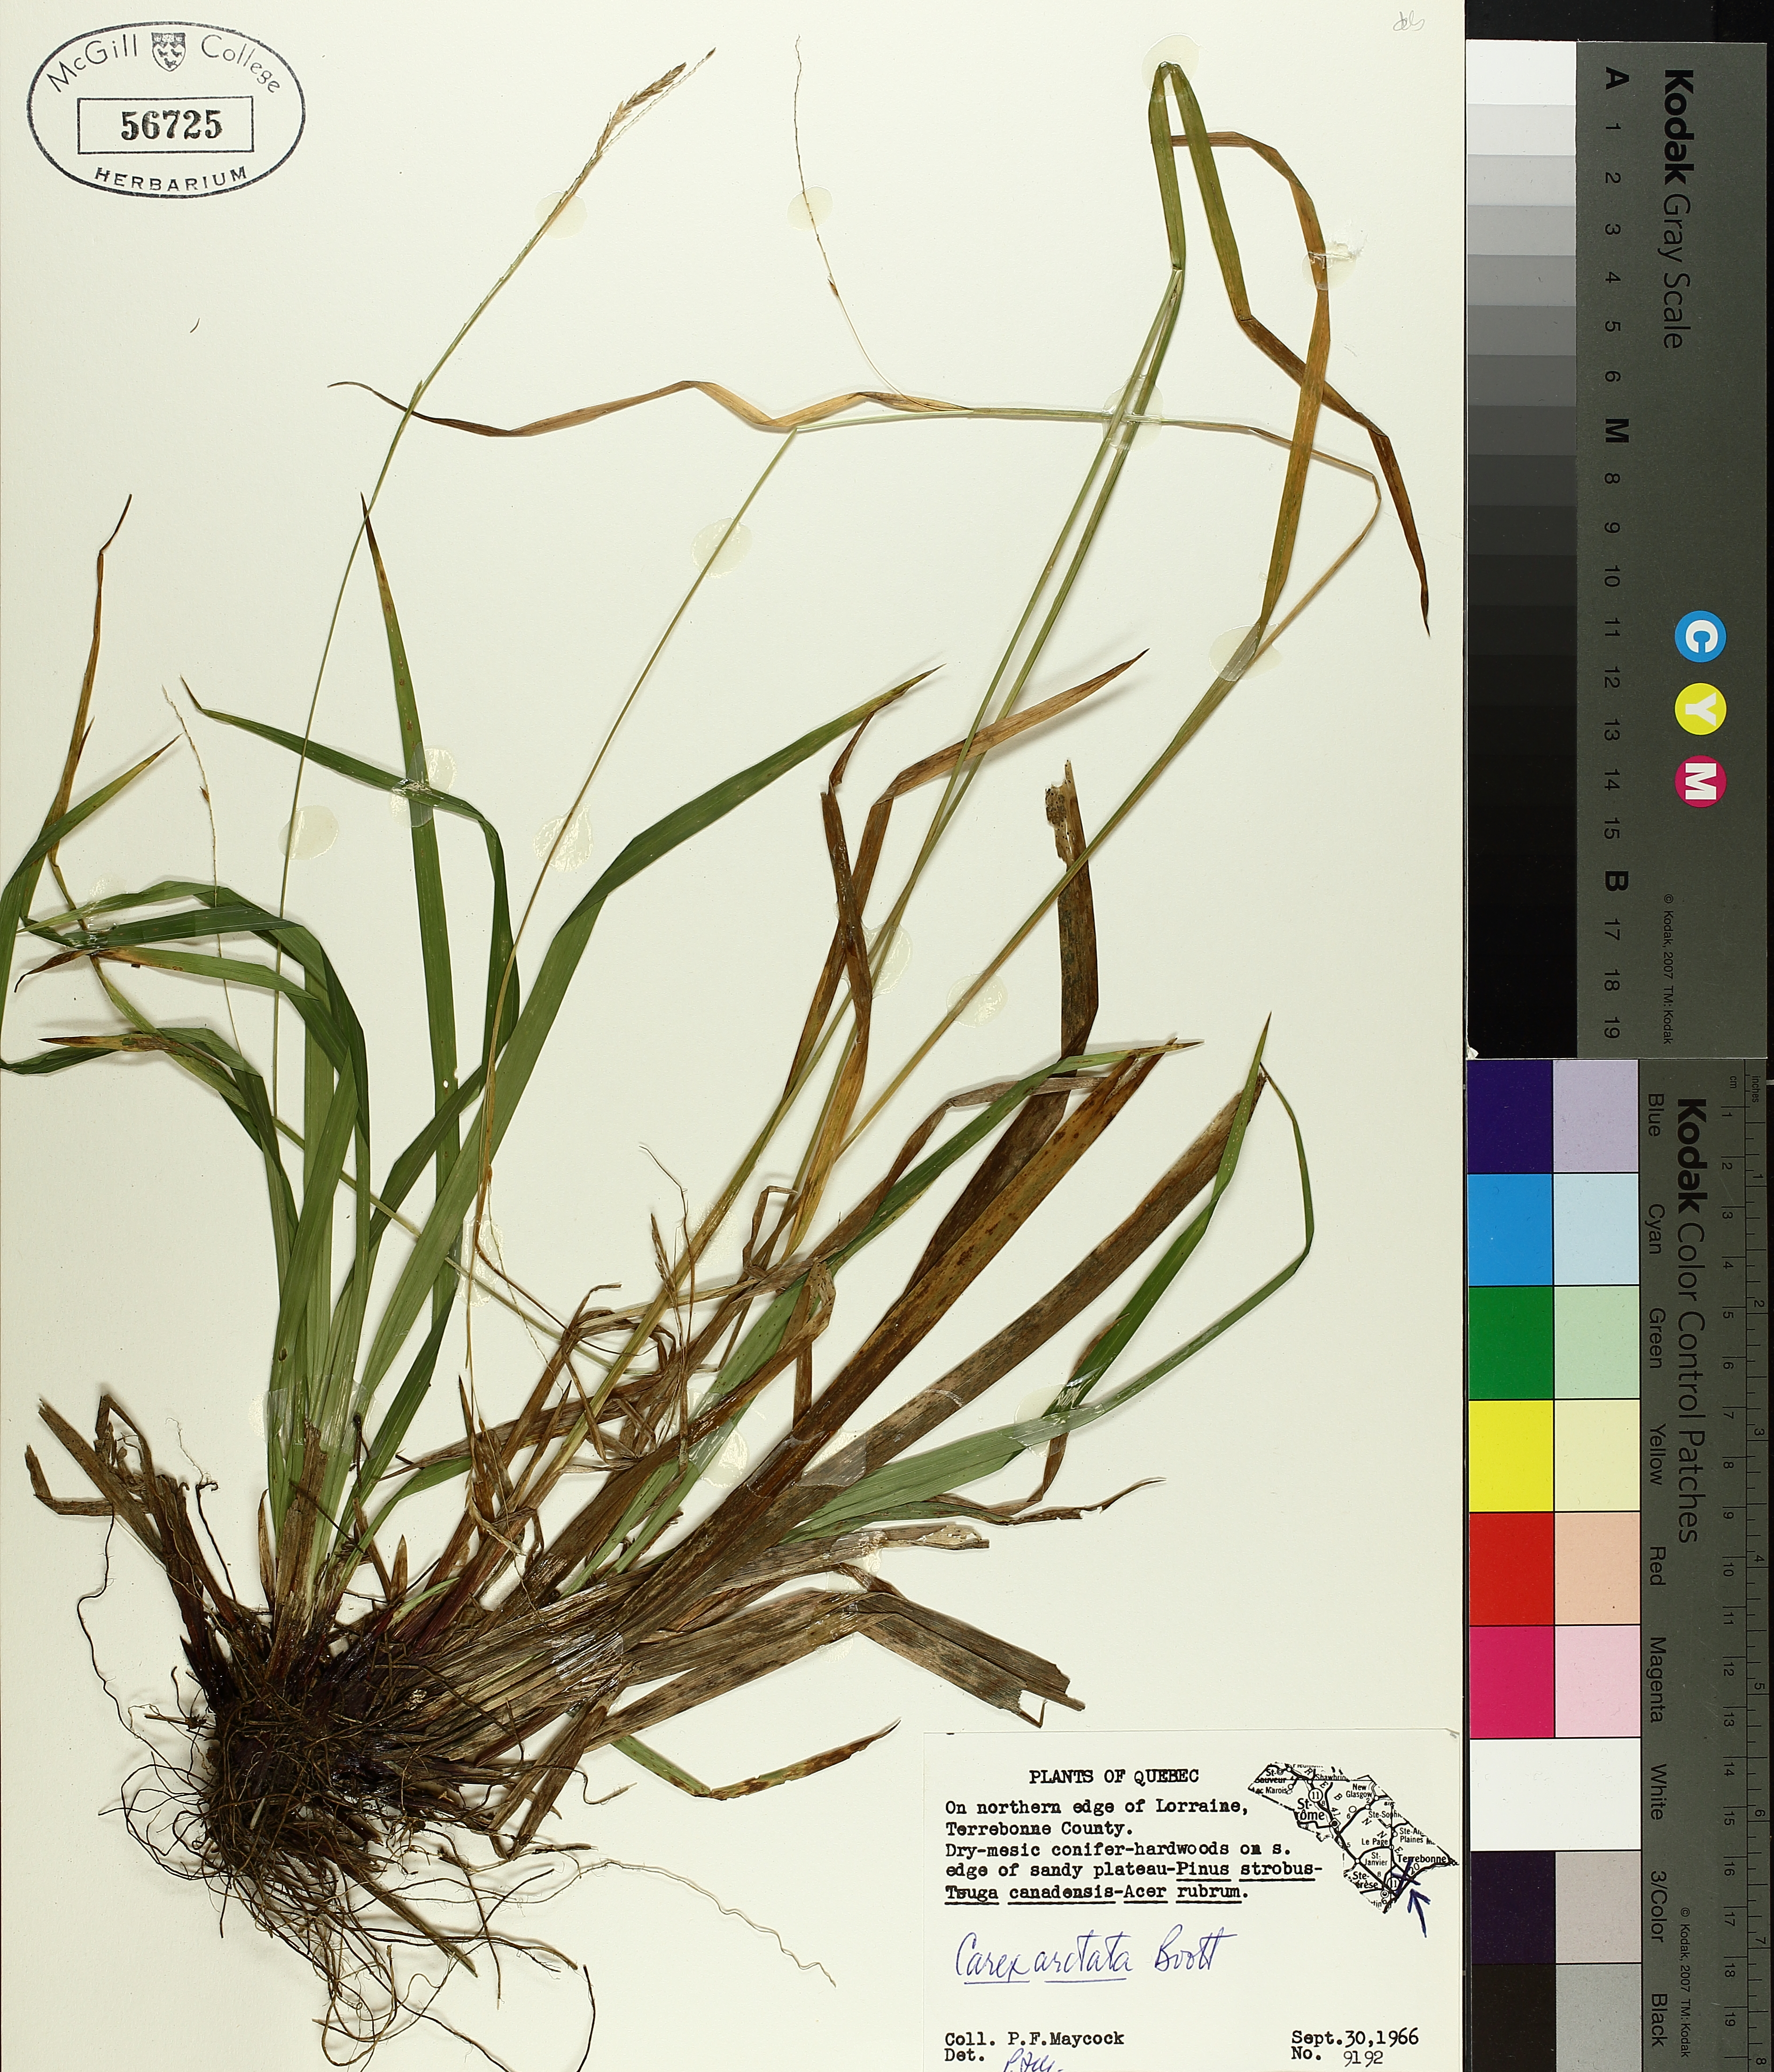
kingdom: Plantae
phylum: Tracheophyta
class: Liliopsida
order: Poales
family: Cyperaceae
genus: Carex
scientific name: Carex arctata
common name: Black sedge
